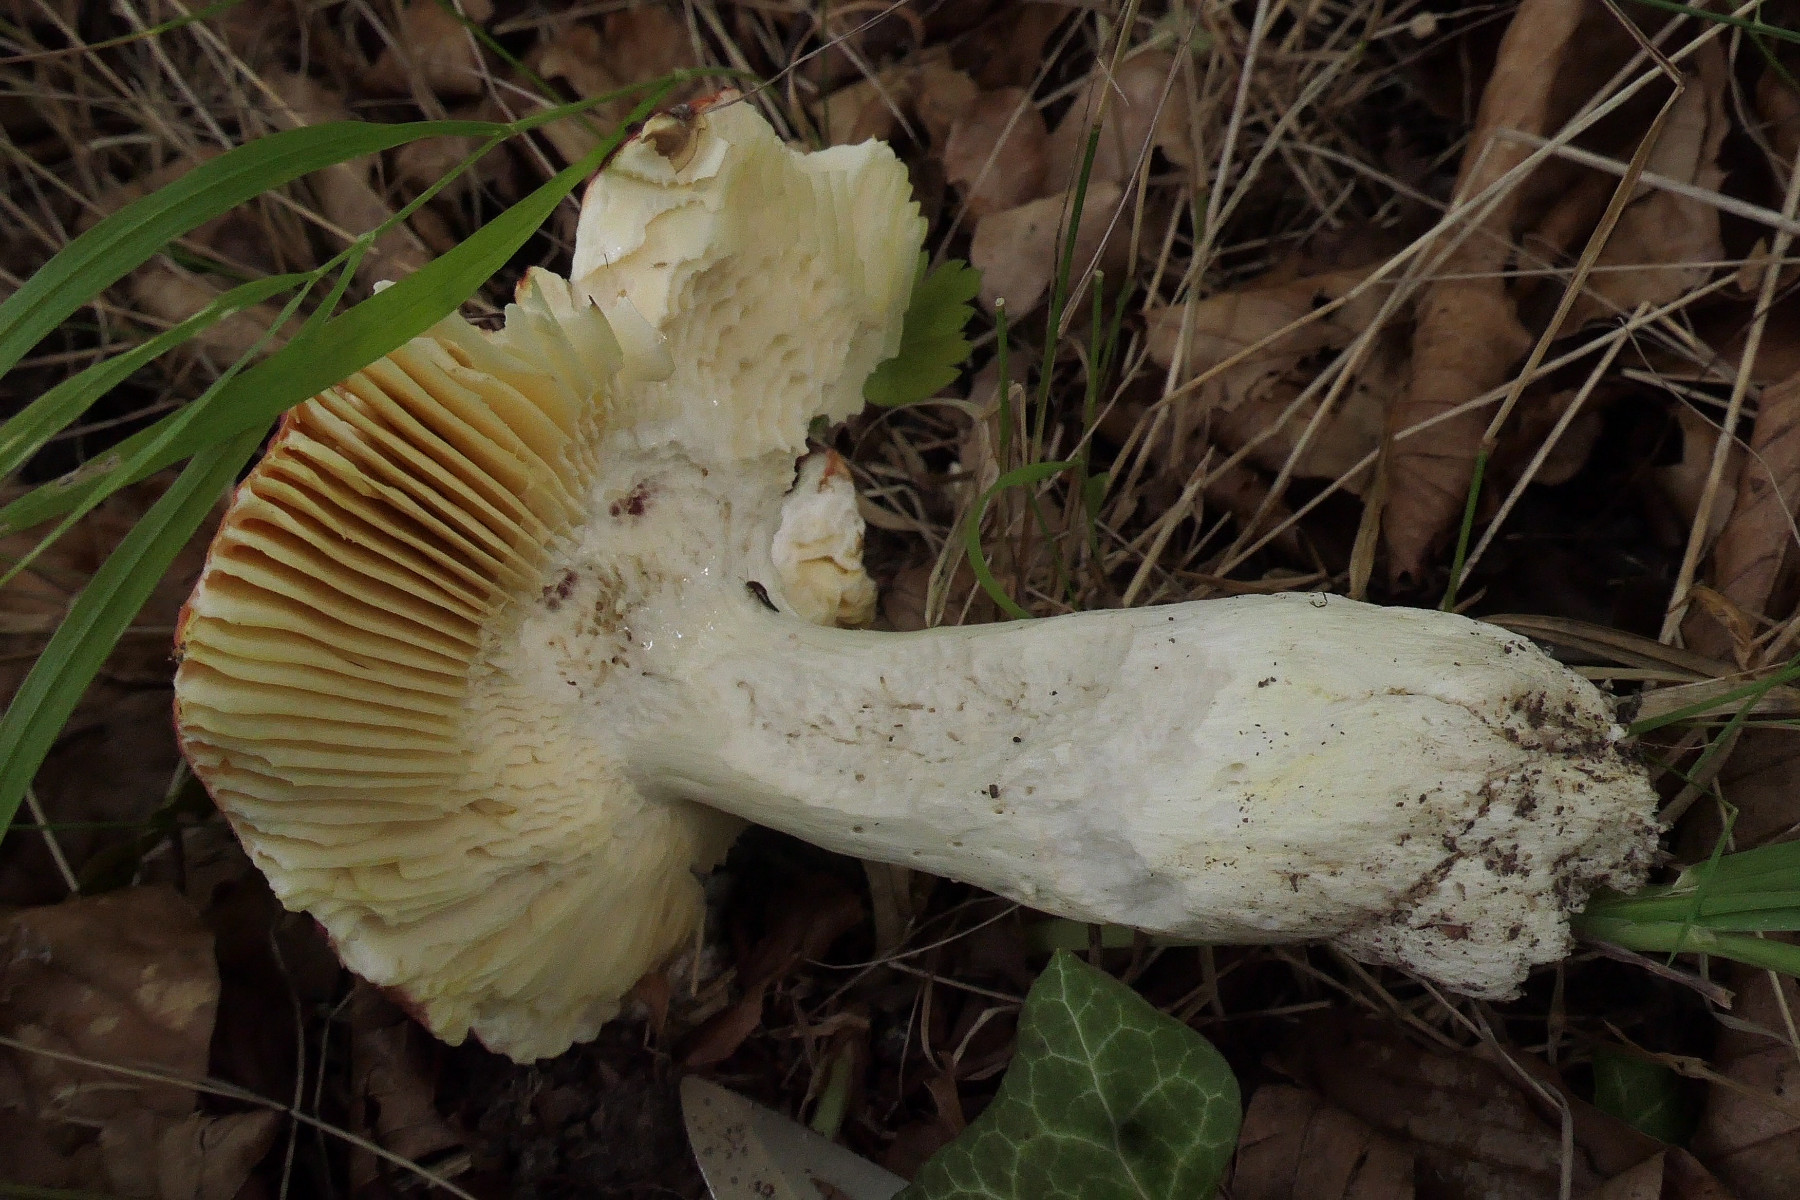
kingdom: Fungi
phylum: Basidiomycota
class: Agaricomycetes
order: Russulales
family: Russulaceae
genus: Russula
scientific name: Russula aurea
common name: gylden skørhat
